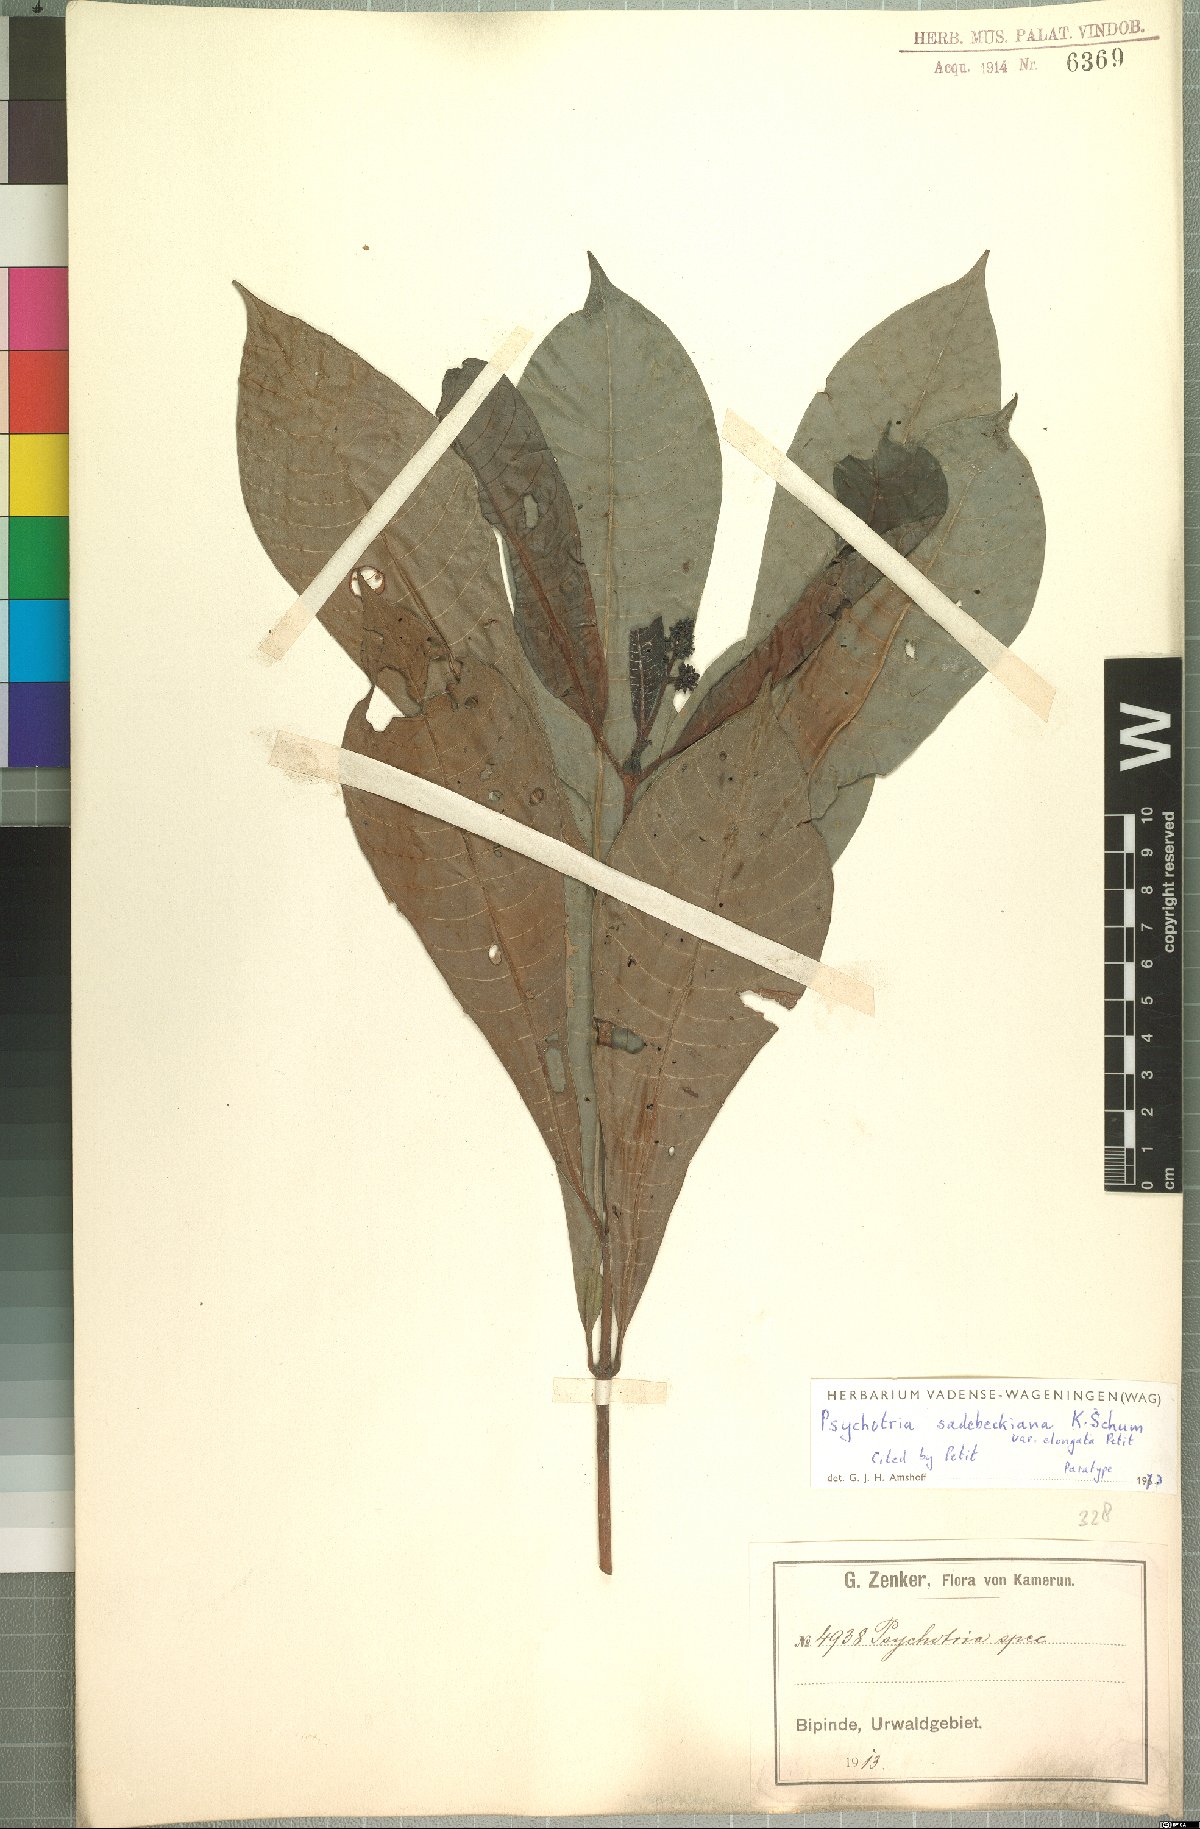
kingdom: Plantae
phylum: Tracheophyta
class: Magnoliopsida
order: Gentianales
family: Rubiaceae
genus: Psychotria
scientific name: Psychotria sadebeckiana
